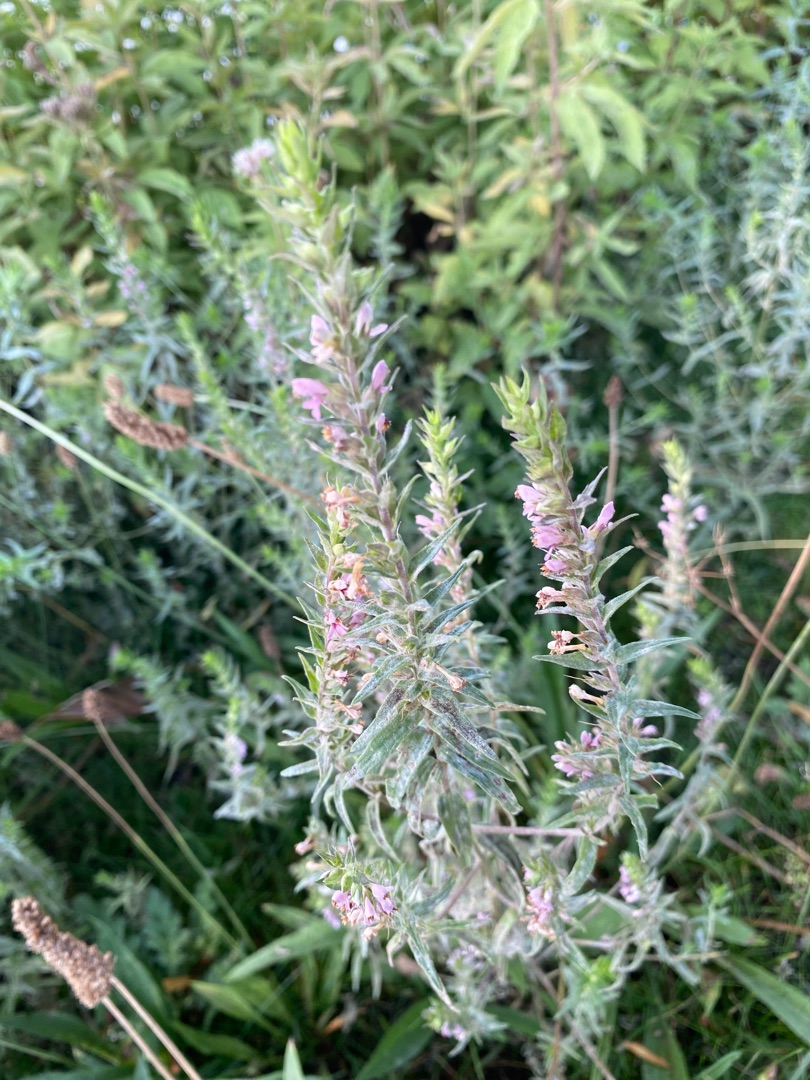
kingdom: Plantae
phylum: Tracheophyta
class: Magnoliopsida
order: Lamiales
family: Orobanchaceae
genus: Odontites
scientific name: Odontites vulgaris
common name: Høst-rødtop
